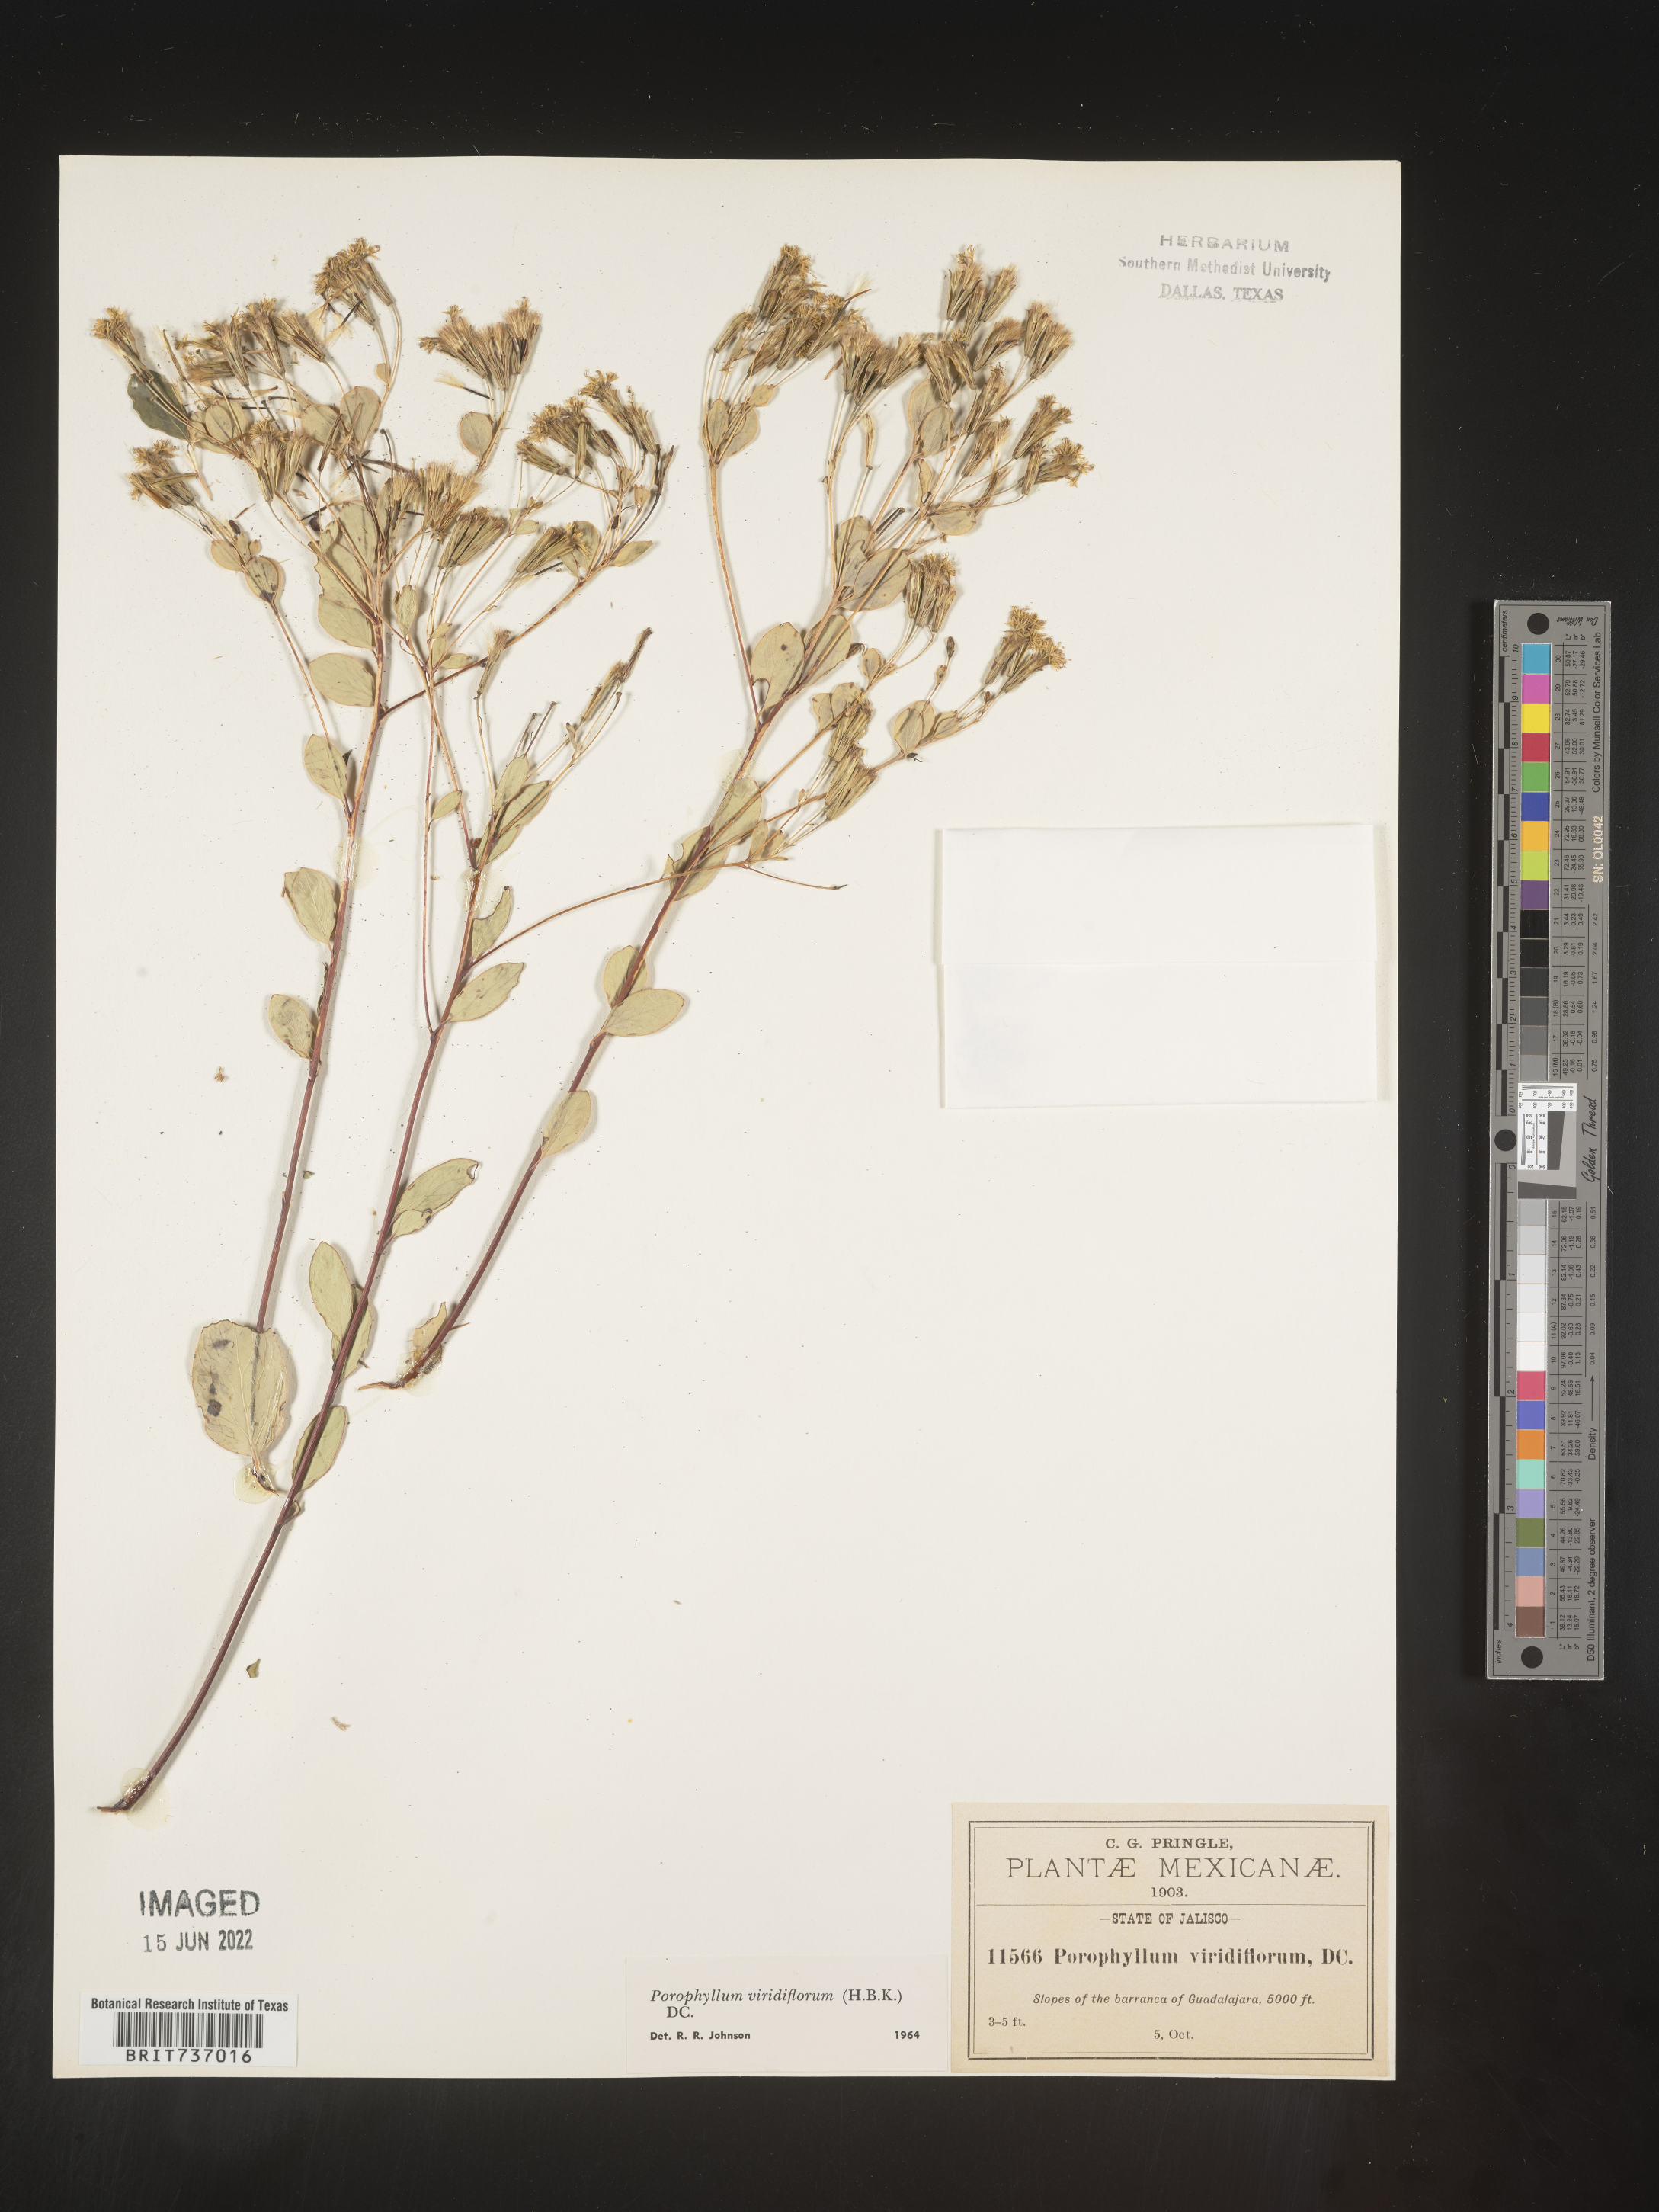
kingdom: Plantae
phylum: Tracheophyta
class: Magnoliopsida
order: Asterales
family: Asteraceae
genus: Porophyllum
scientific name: Porophyllum
